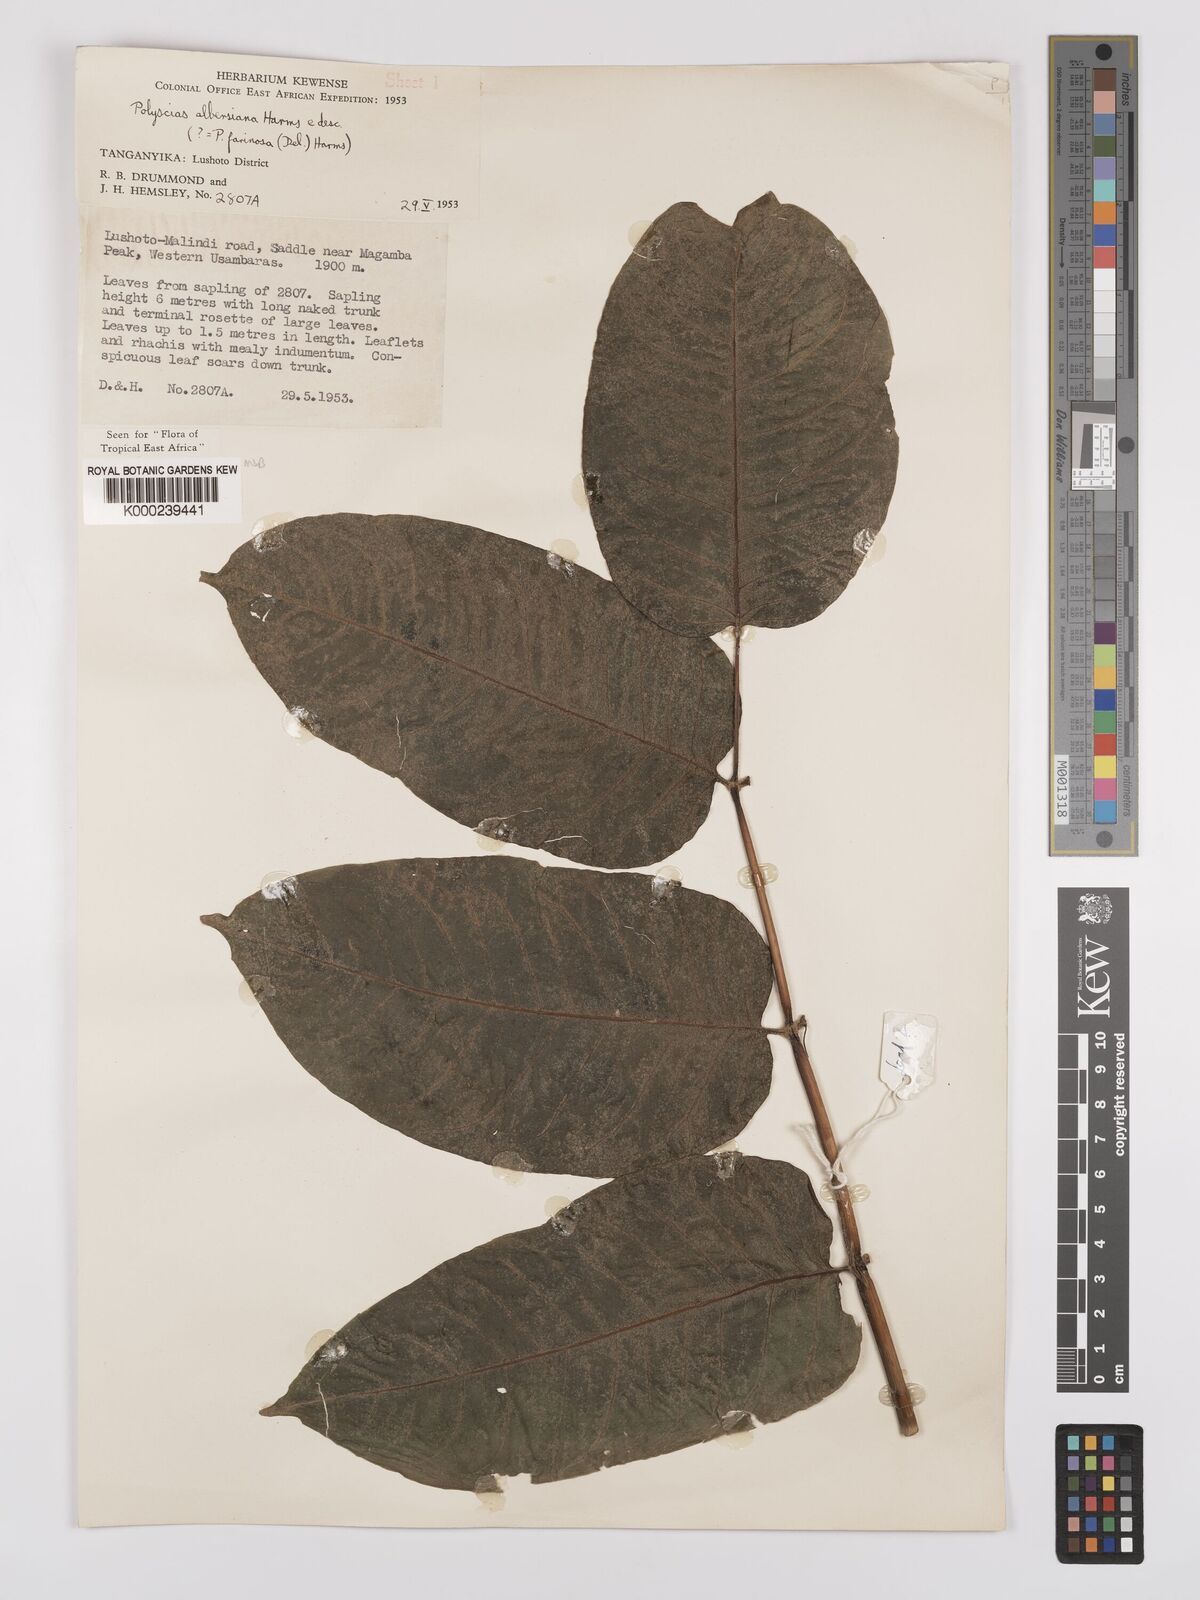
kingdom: Plantae
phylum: Tracheophyta
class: Magnoliopsida
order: Apiales
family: Araliaceae
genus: Polyscias
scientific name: Polyscias albersiana
